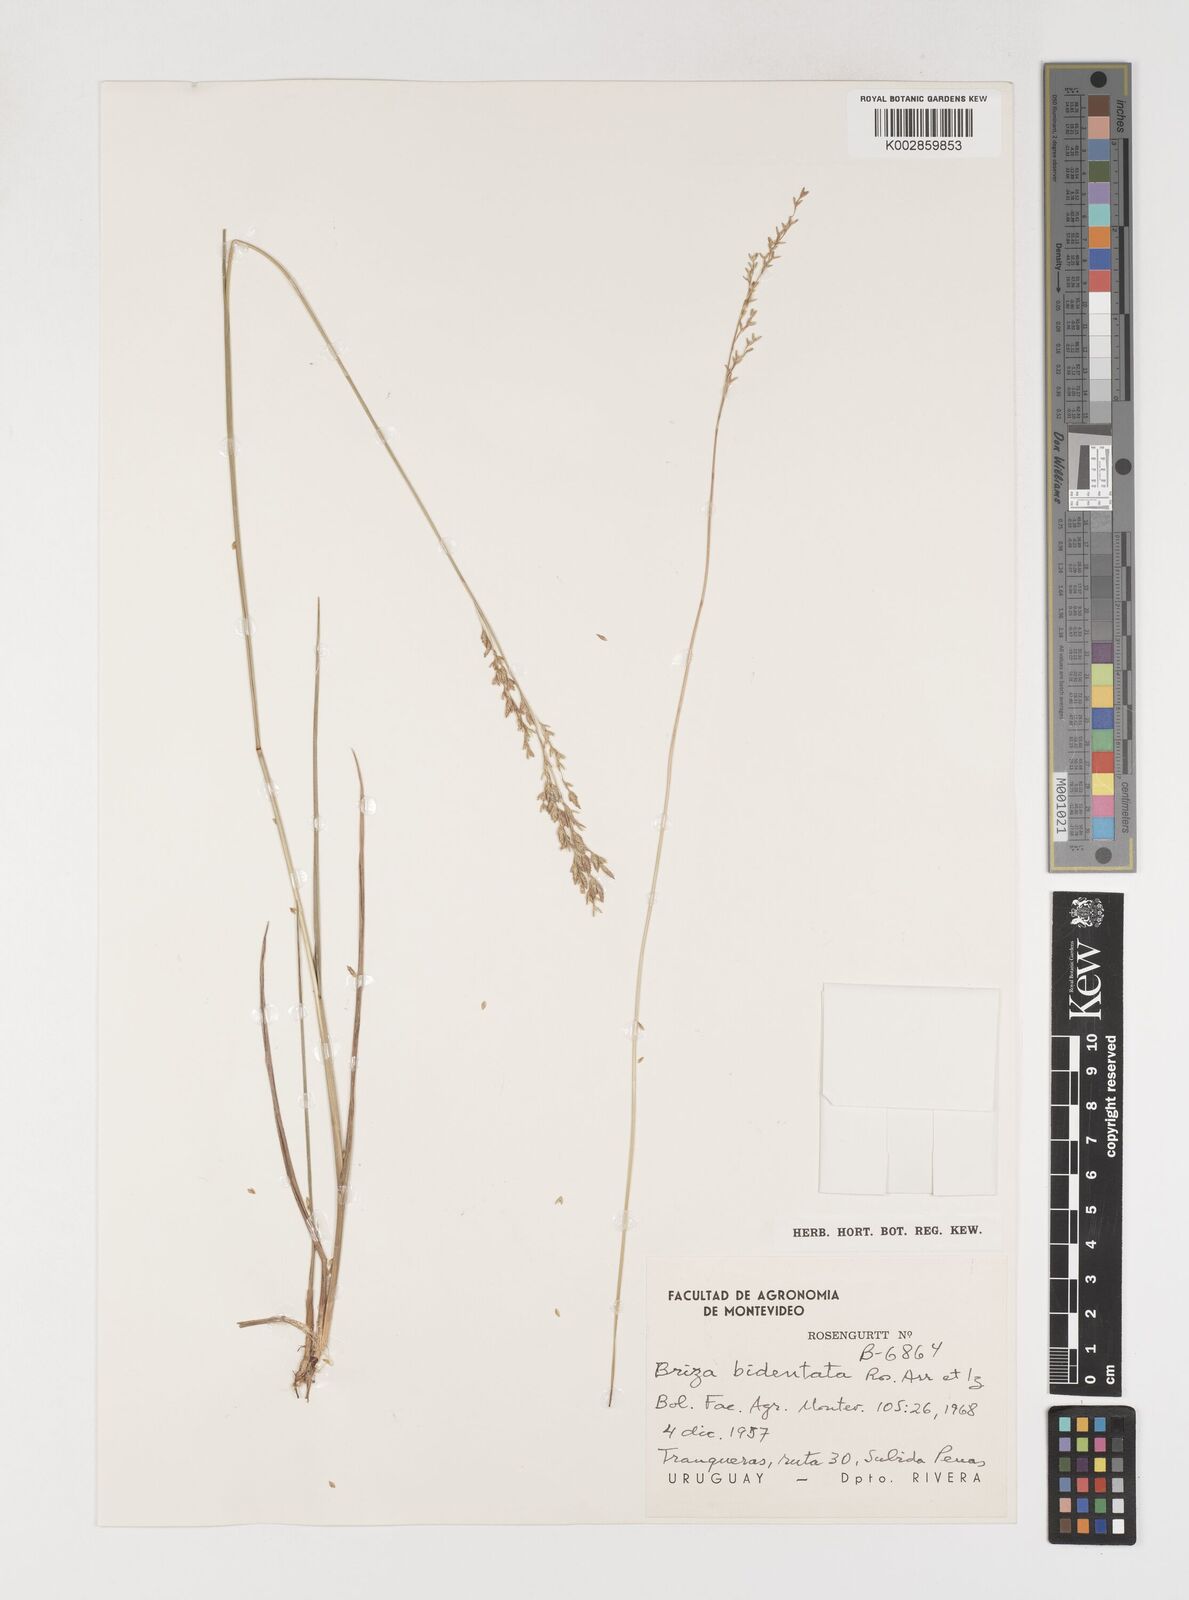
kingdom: Plantae
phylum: Tracheophyta
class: Liliopsida
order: Poales
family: Poaceae
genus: Rhombolytrum
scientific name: Rhombolytrum monandrum
